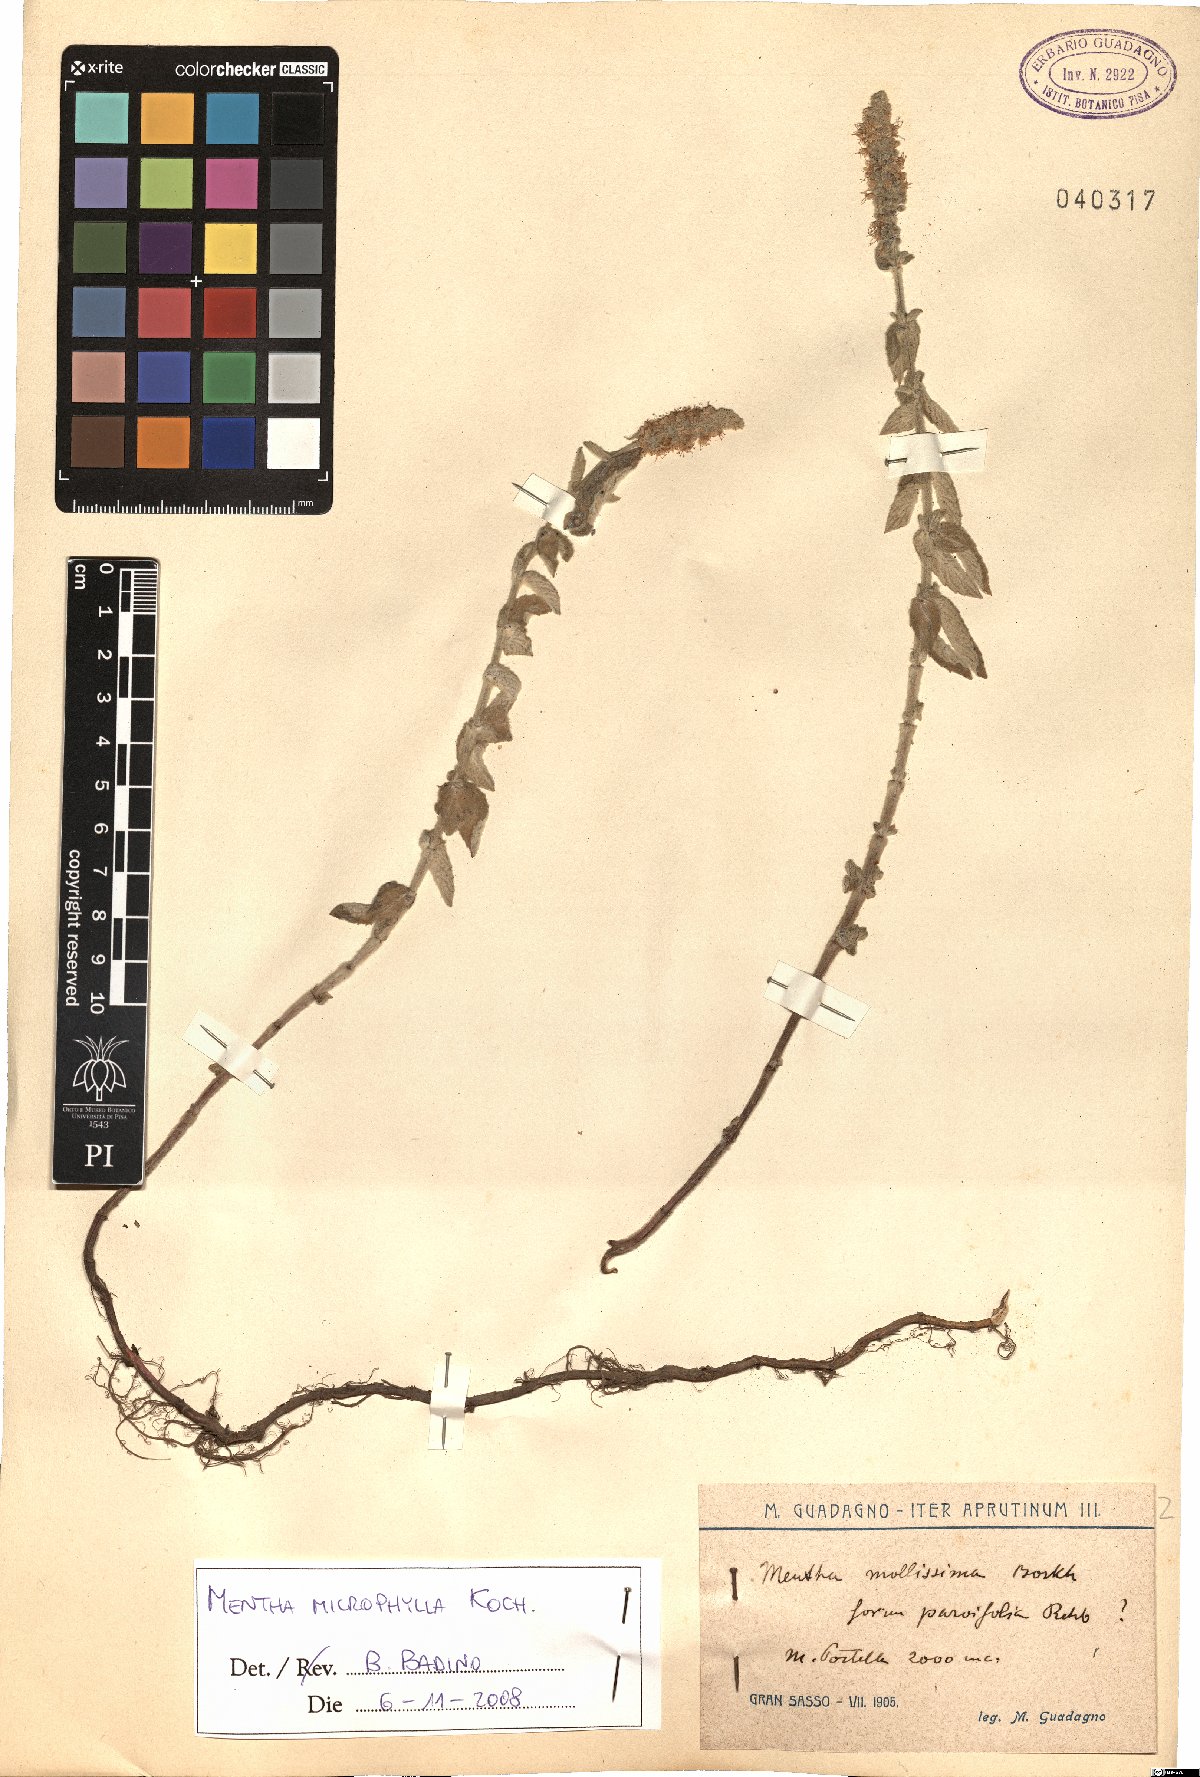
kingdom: Plantae
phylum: Tracheophyta
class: Magnoliopsida
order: Lamiales
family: Lamiaceae
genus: Mentha
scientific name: Mentha spicata
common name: Spearmint
